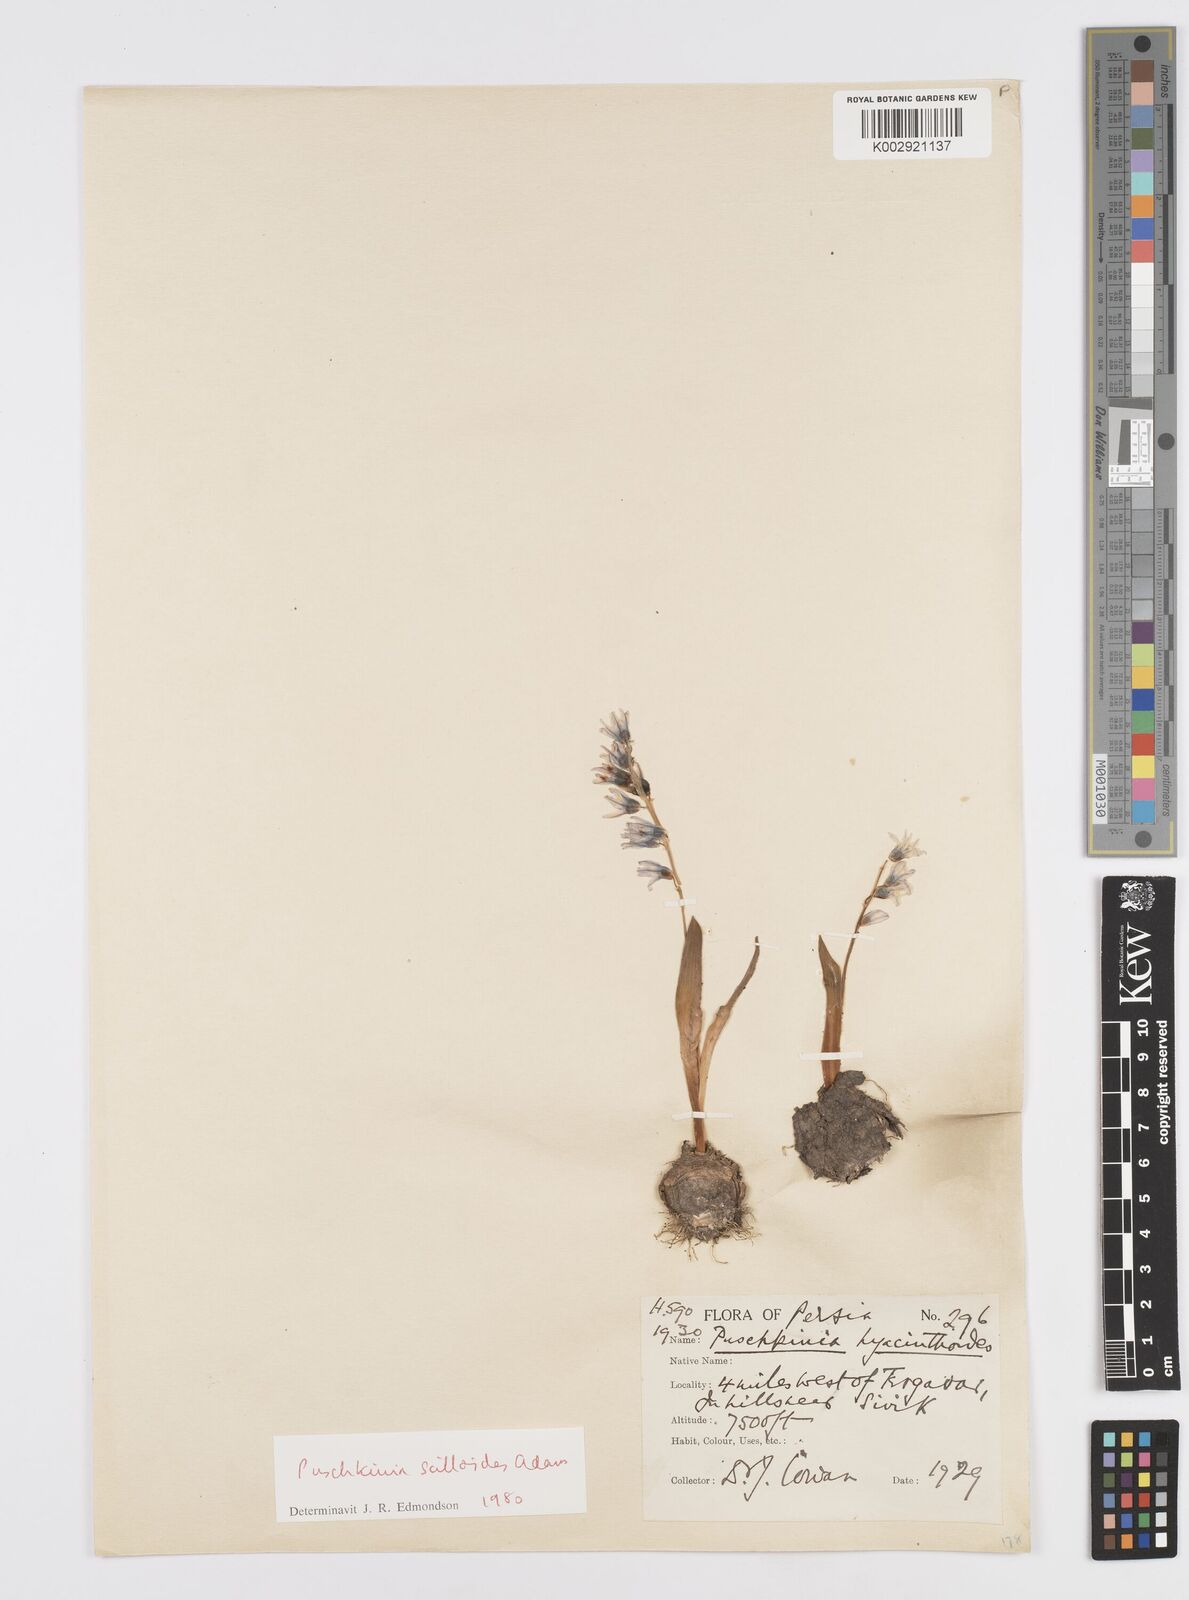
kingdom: Plantae
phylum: Tracheophyta
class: Liliopsida
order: Asparagales
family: Asparagaceae
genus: Puschkinia
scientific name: Puschkinia scilloides
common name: Striped squill
